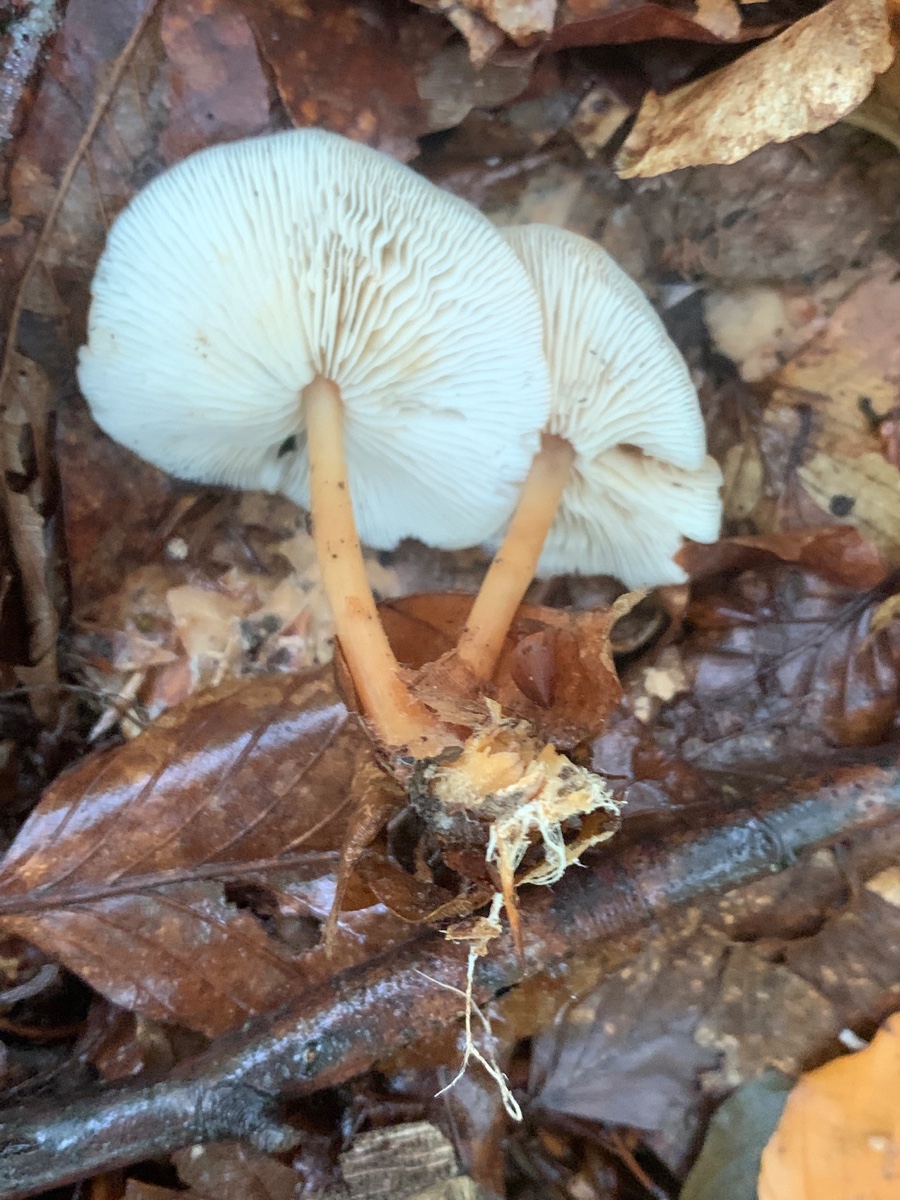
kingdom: Fungi
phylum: Basidiomycota
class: Agaricomycetes
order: Agaricales
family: Omphalotaceae
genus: Gymnopus
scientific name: Gymnopus dryophilus
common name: løv-fladhat
